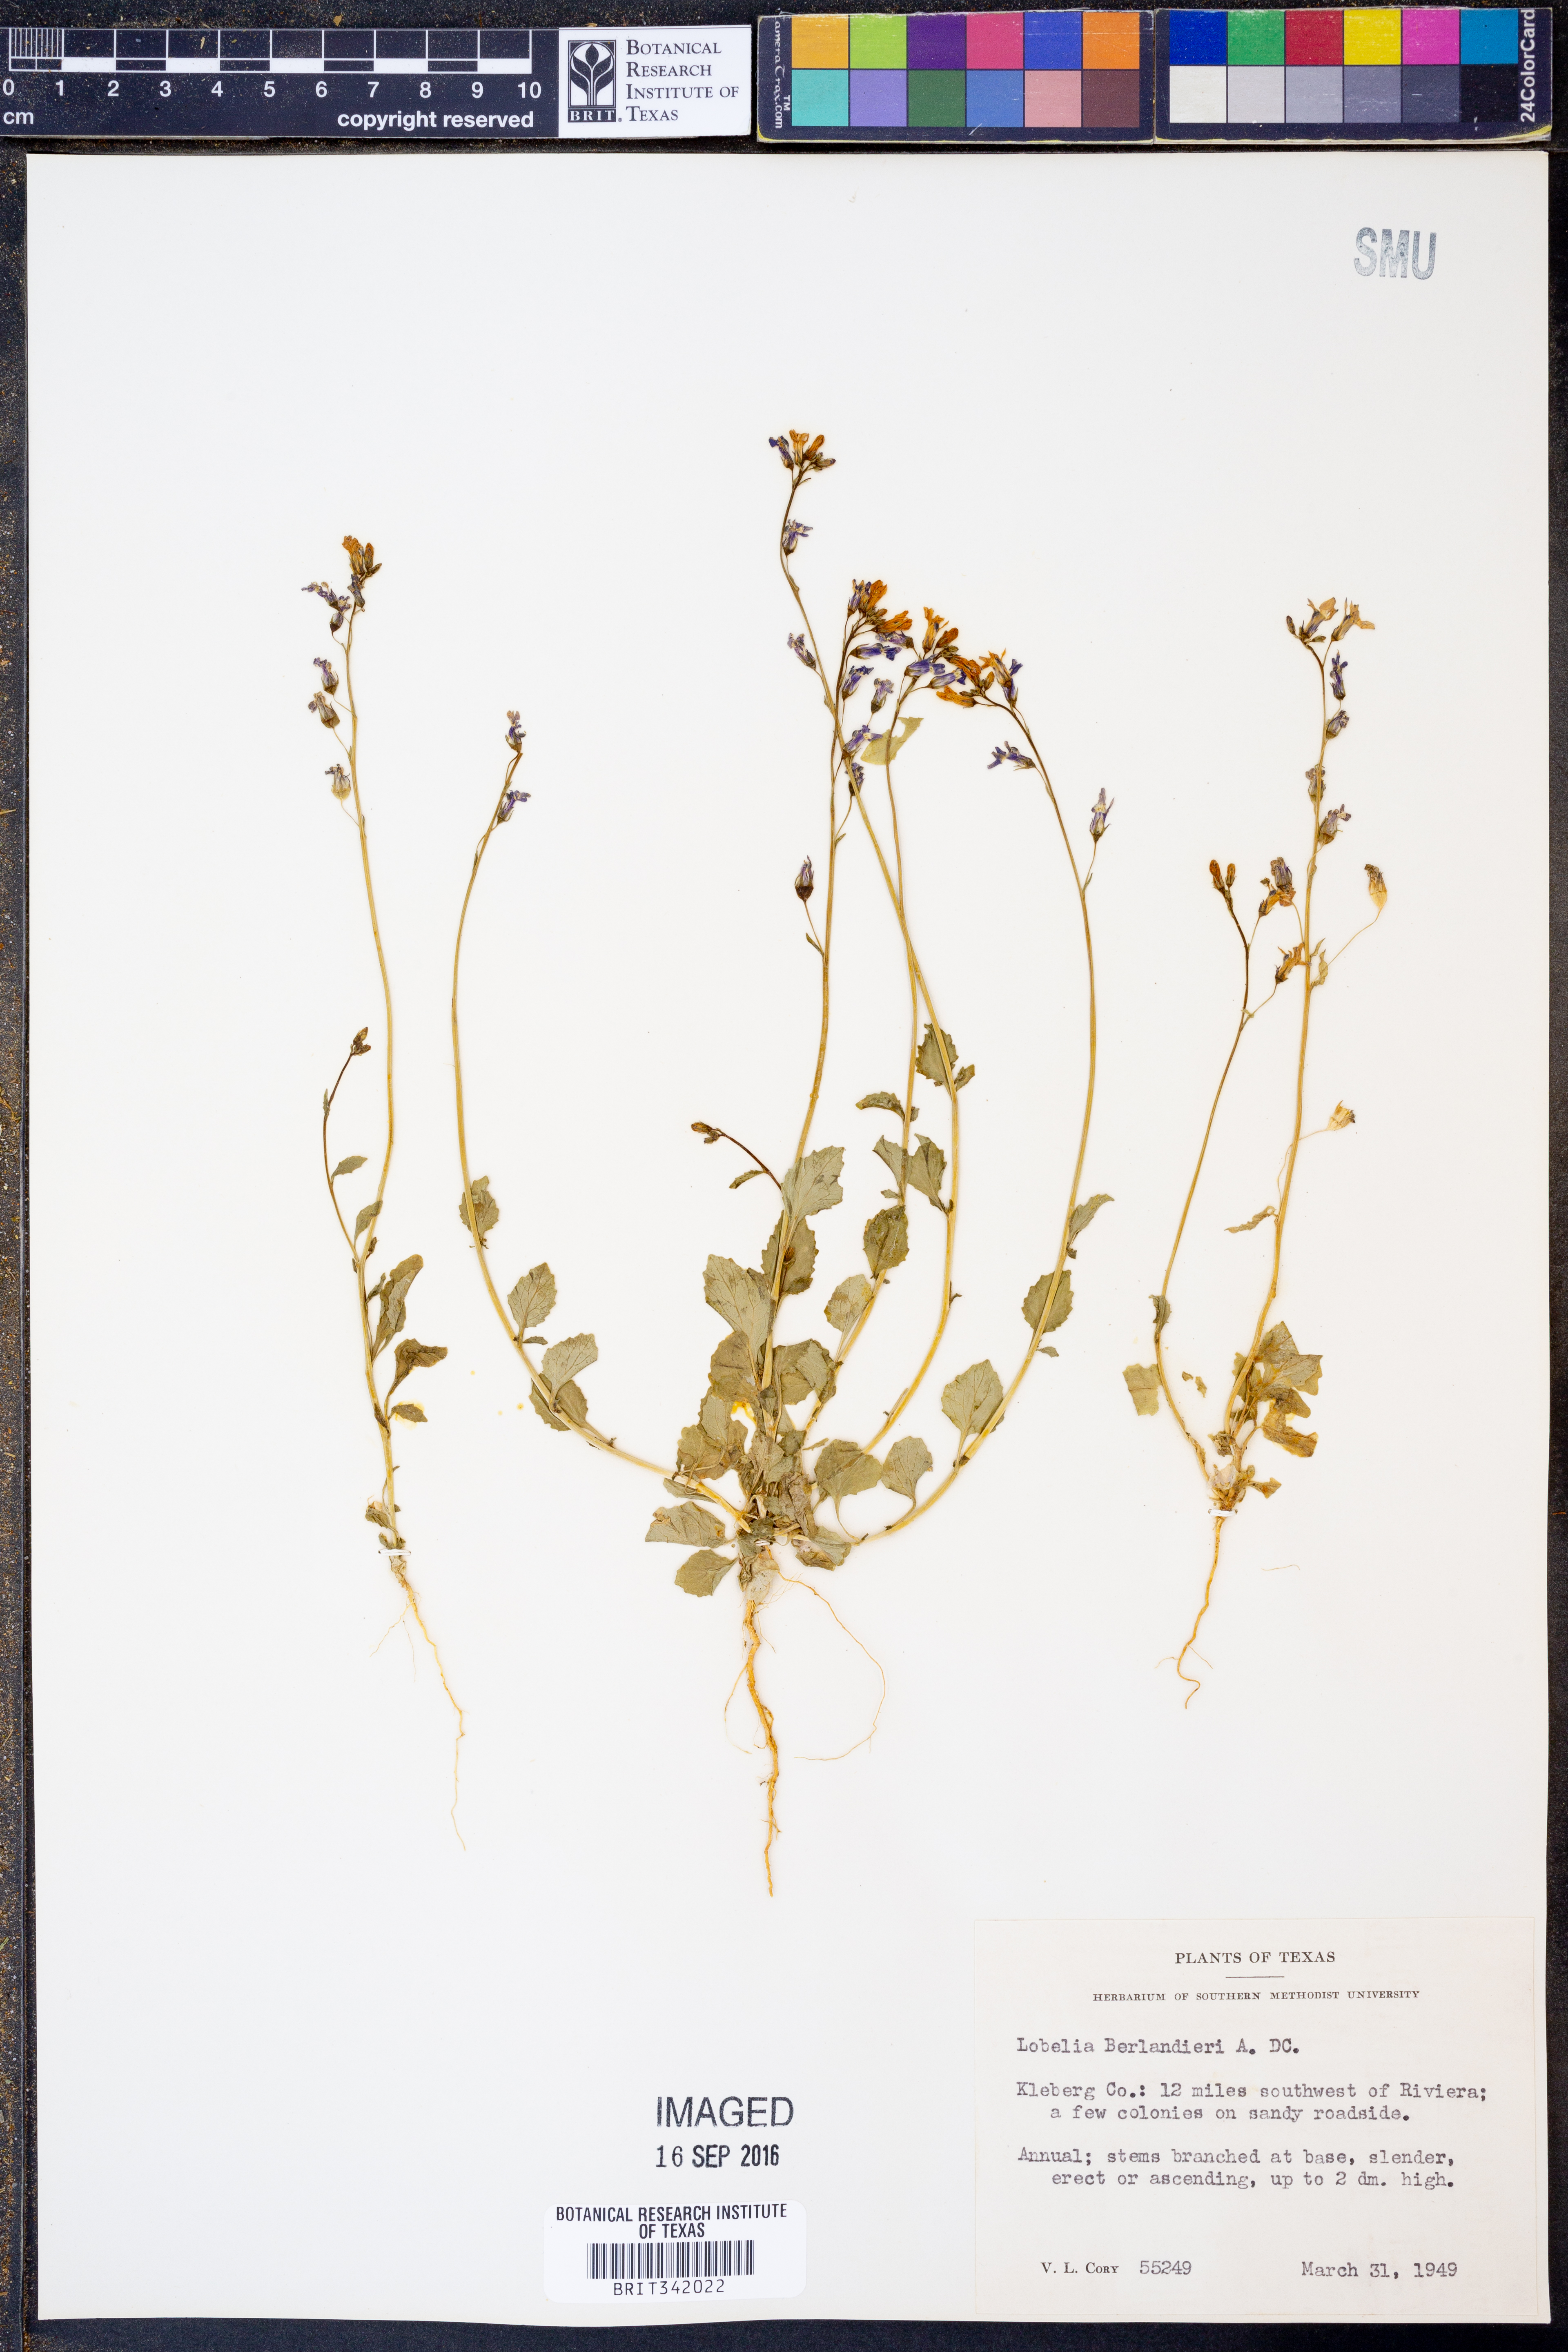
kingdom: Plantae
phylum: Tracheophyta
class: Magnoliopsida
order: Asterales
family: Campanulaceae
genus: Lobelia
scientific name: Lobelia berlandieri
